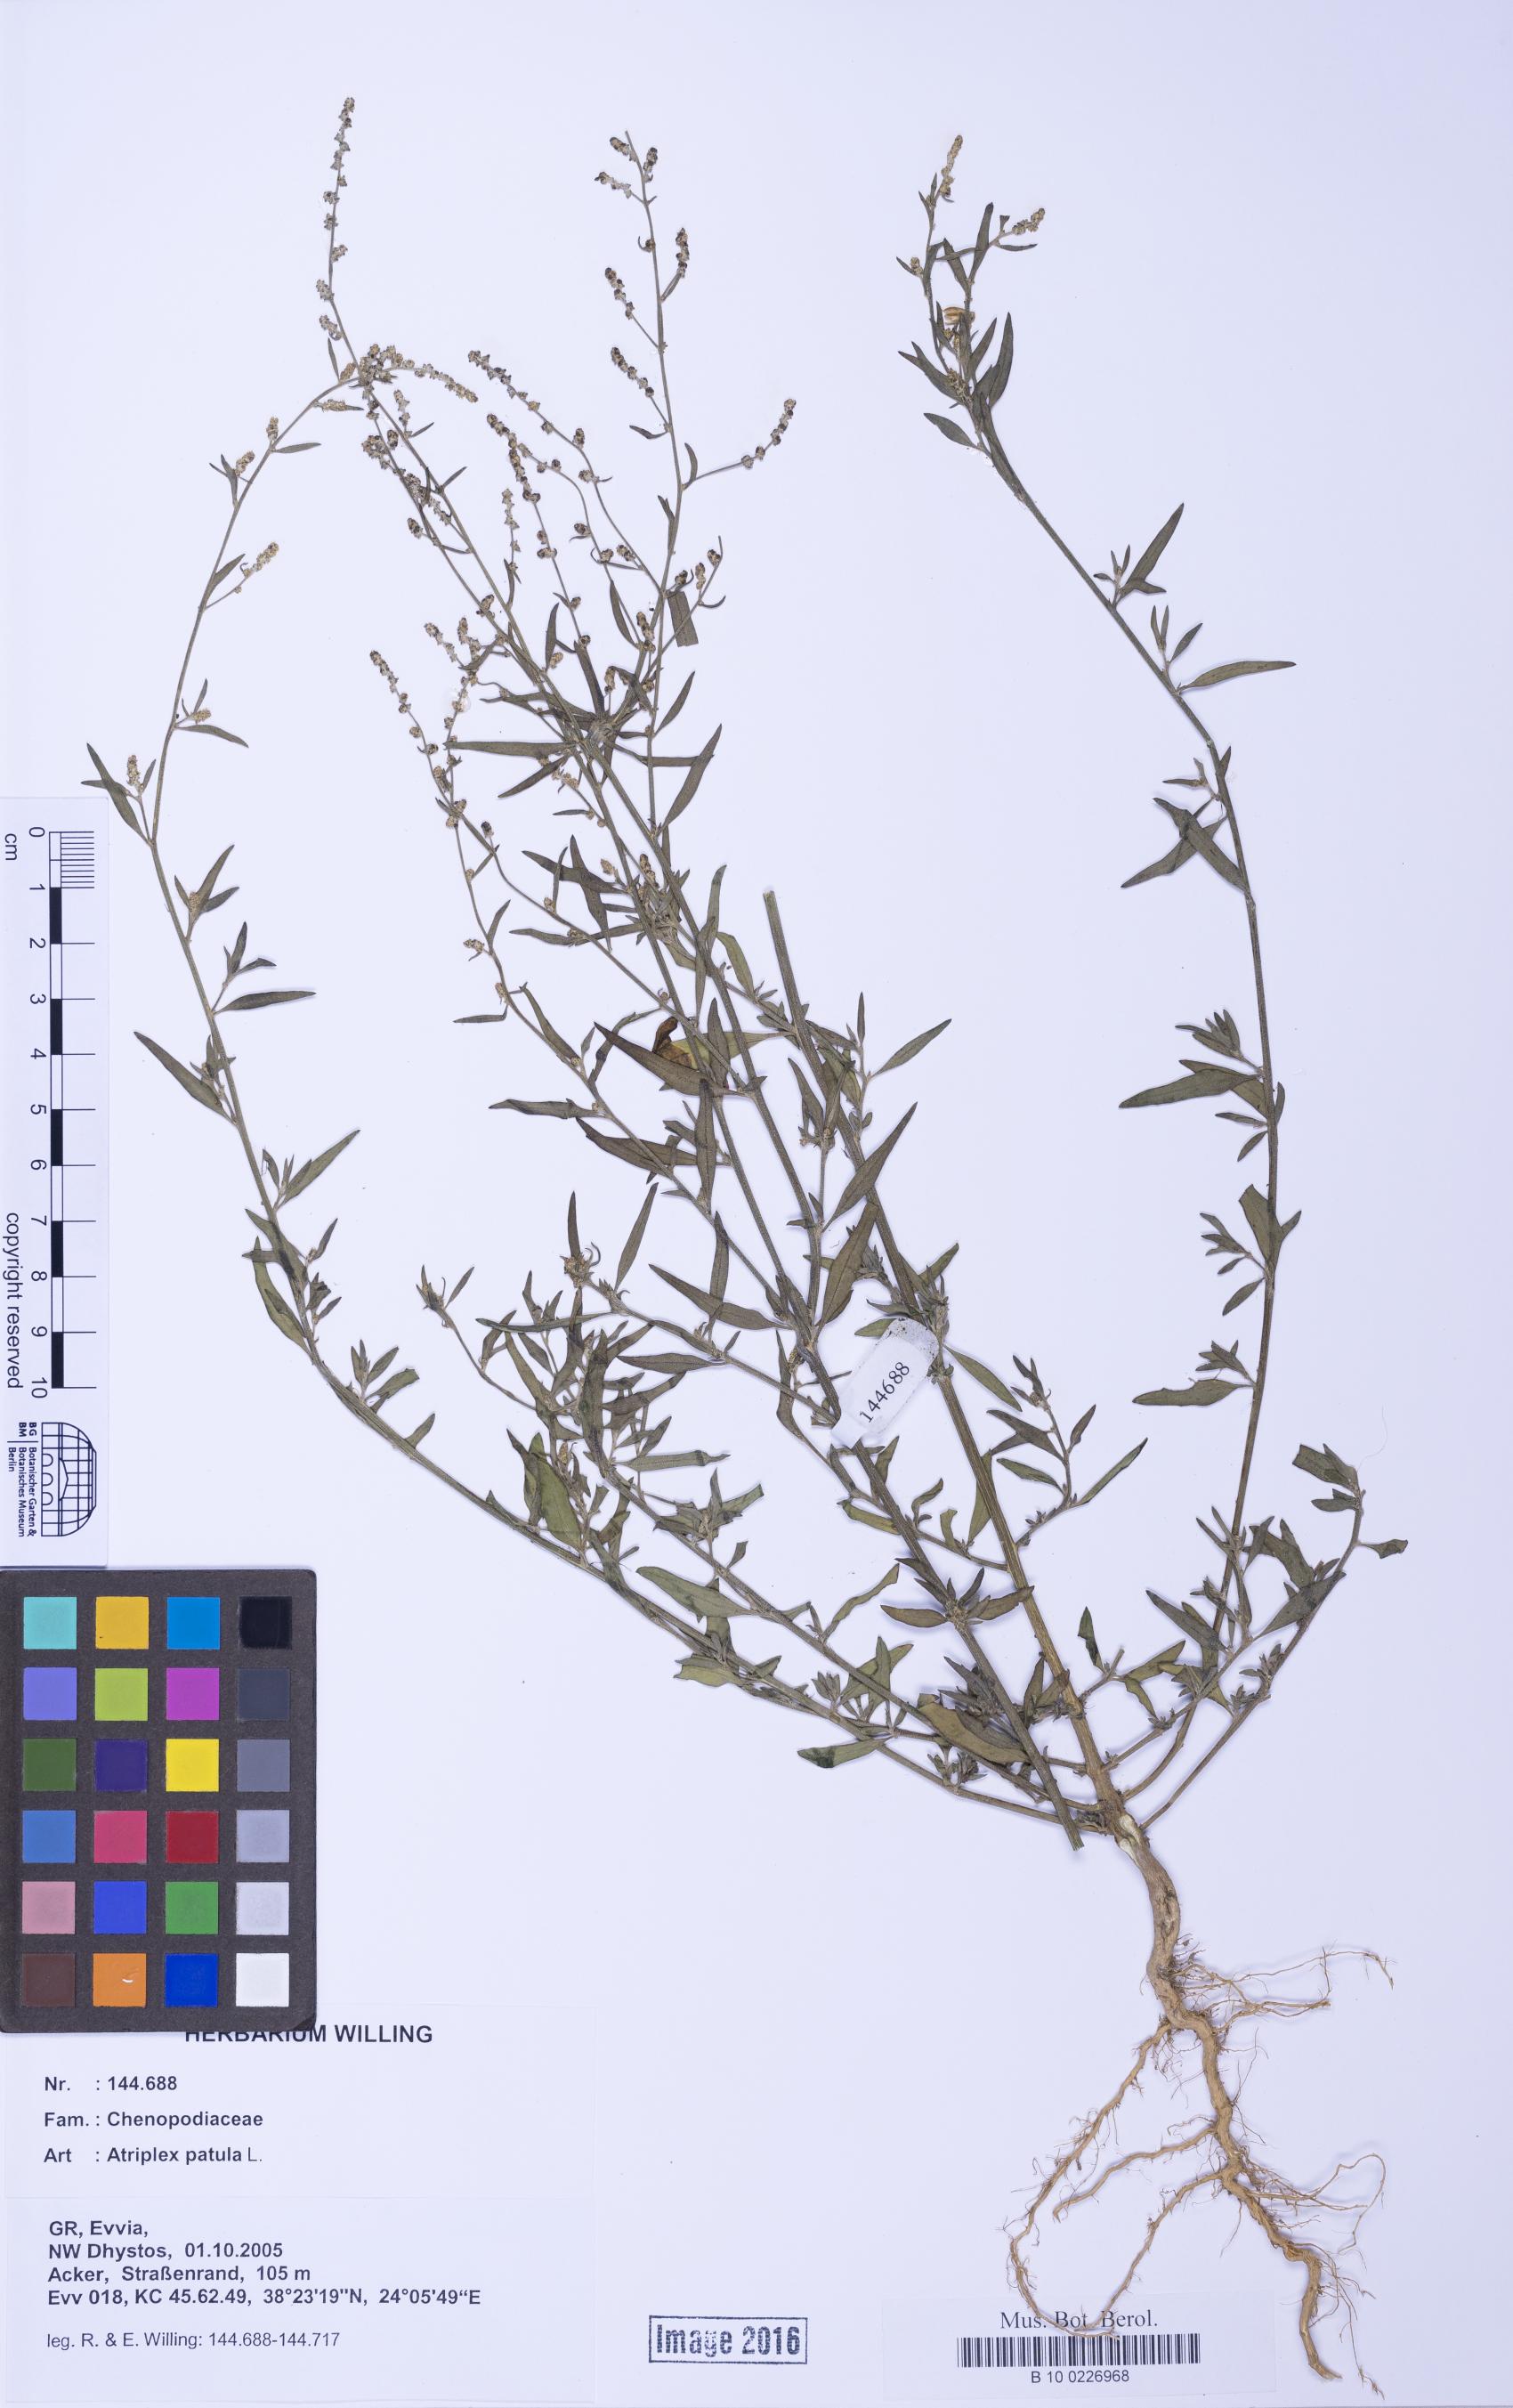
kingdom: Plantae
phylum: Tracheophyta
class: Magnoliopsida
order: Caryophyllales
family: Amaranthaceae
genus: Atriplex
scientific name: Atriplex patula
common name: Common orache
